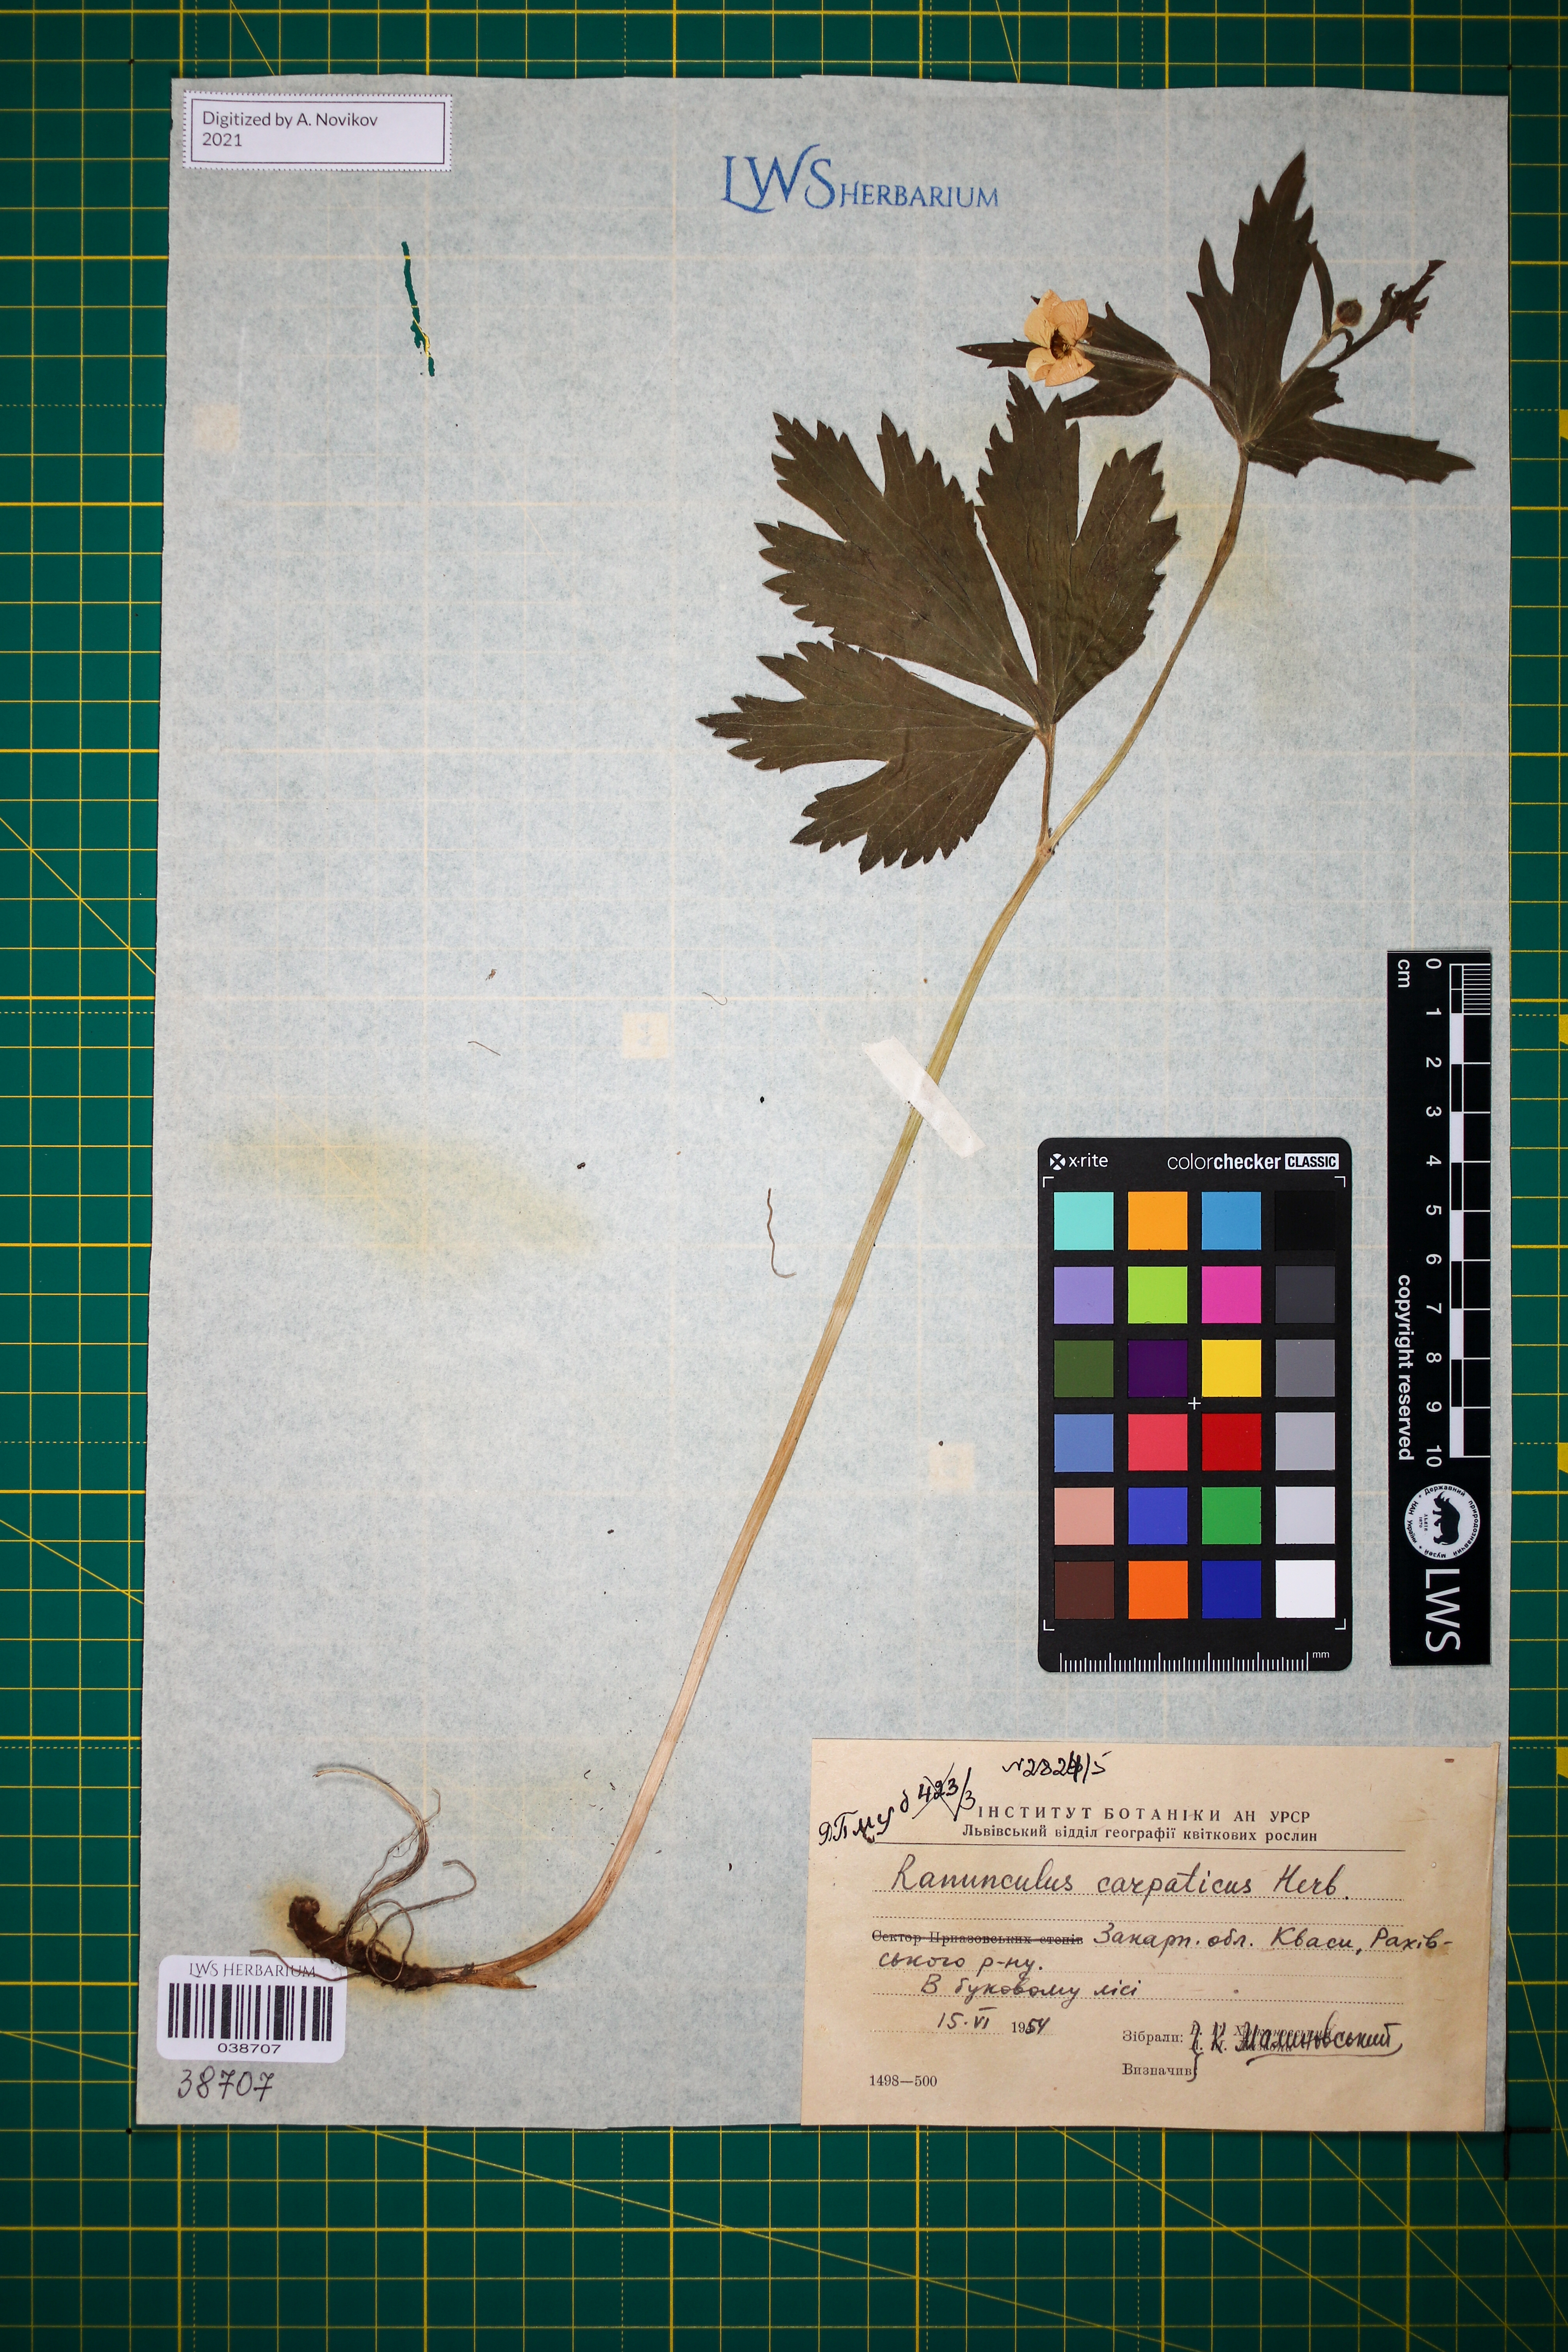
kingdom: Plantae
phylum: Tracheophyta
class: Magnoliopsida
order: Ranunculales
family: Ranunculaceae
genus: Ranunculus
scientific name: Ranunculus carpaticus
